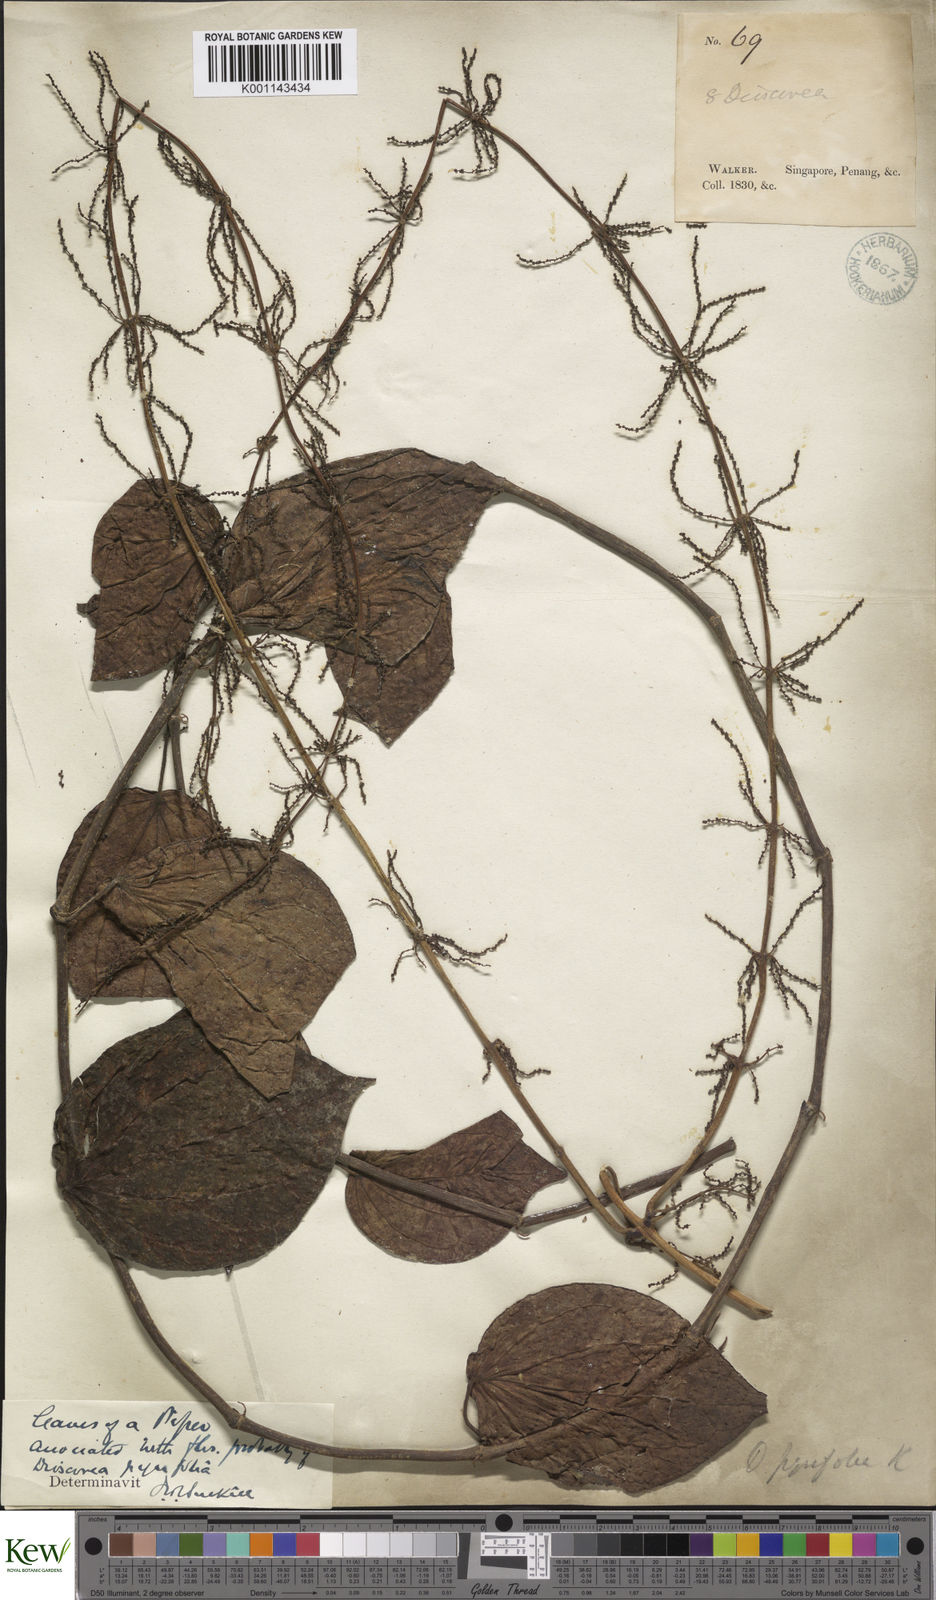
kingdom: Plantae
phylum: Tracheophyta
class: Liliopsida
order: Dioscoreales
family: Dioscoreaceae
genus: Dioscorea
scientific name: Dioscorea pyrifolia
